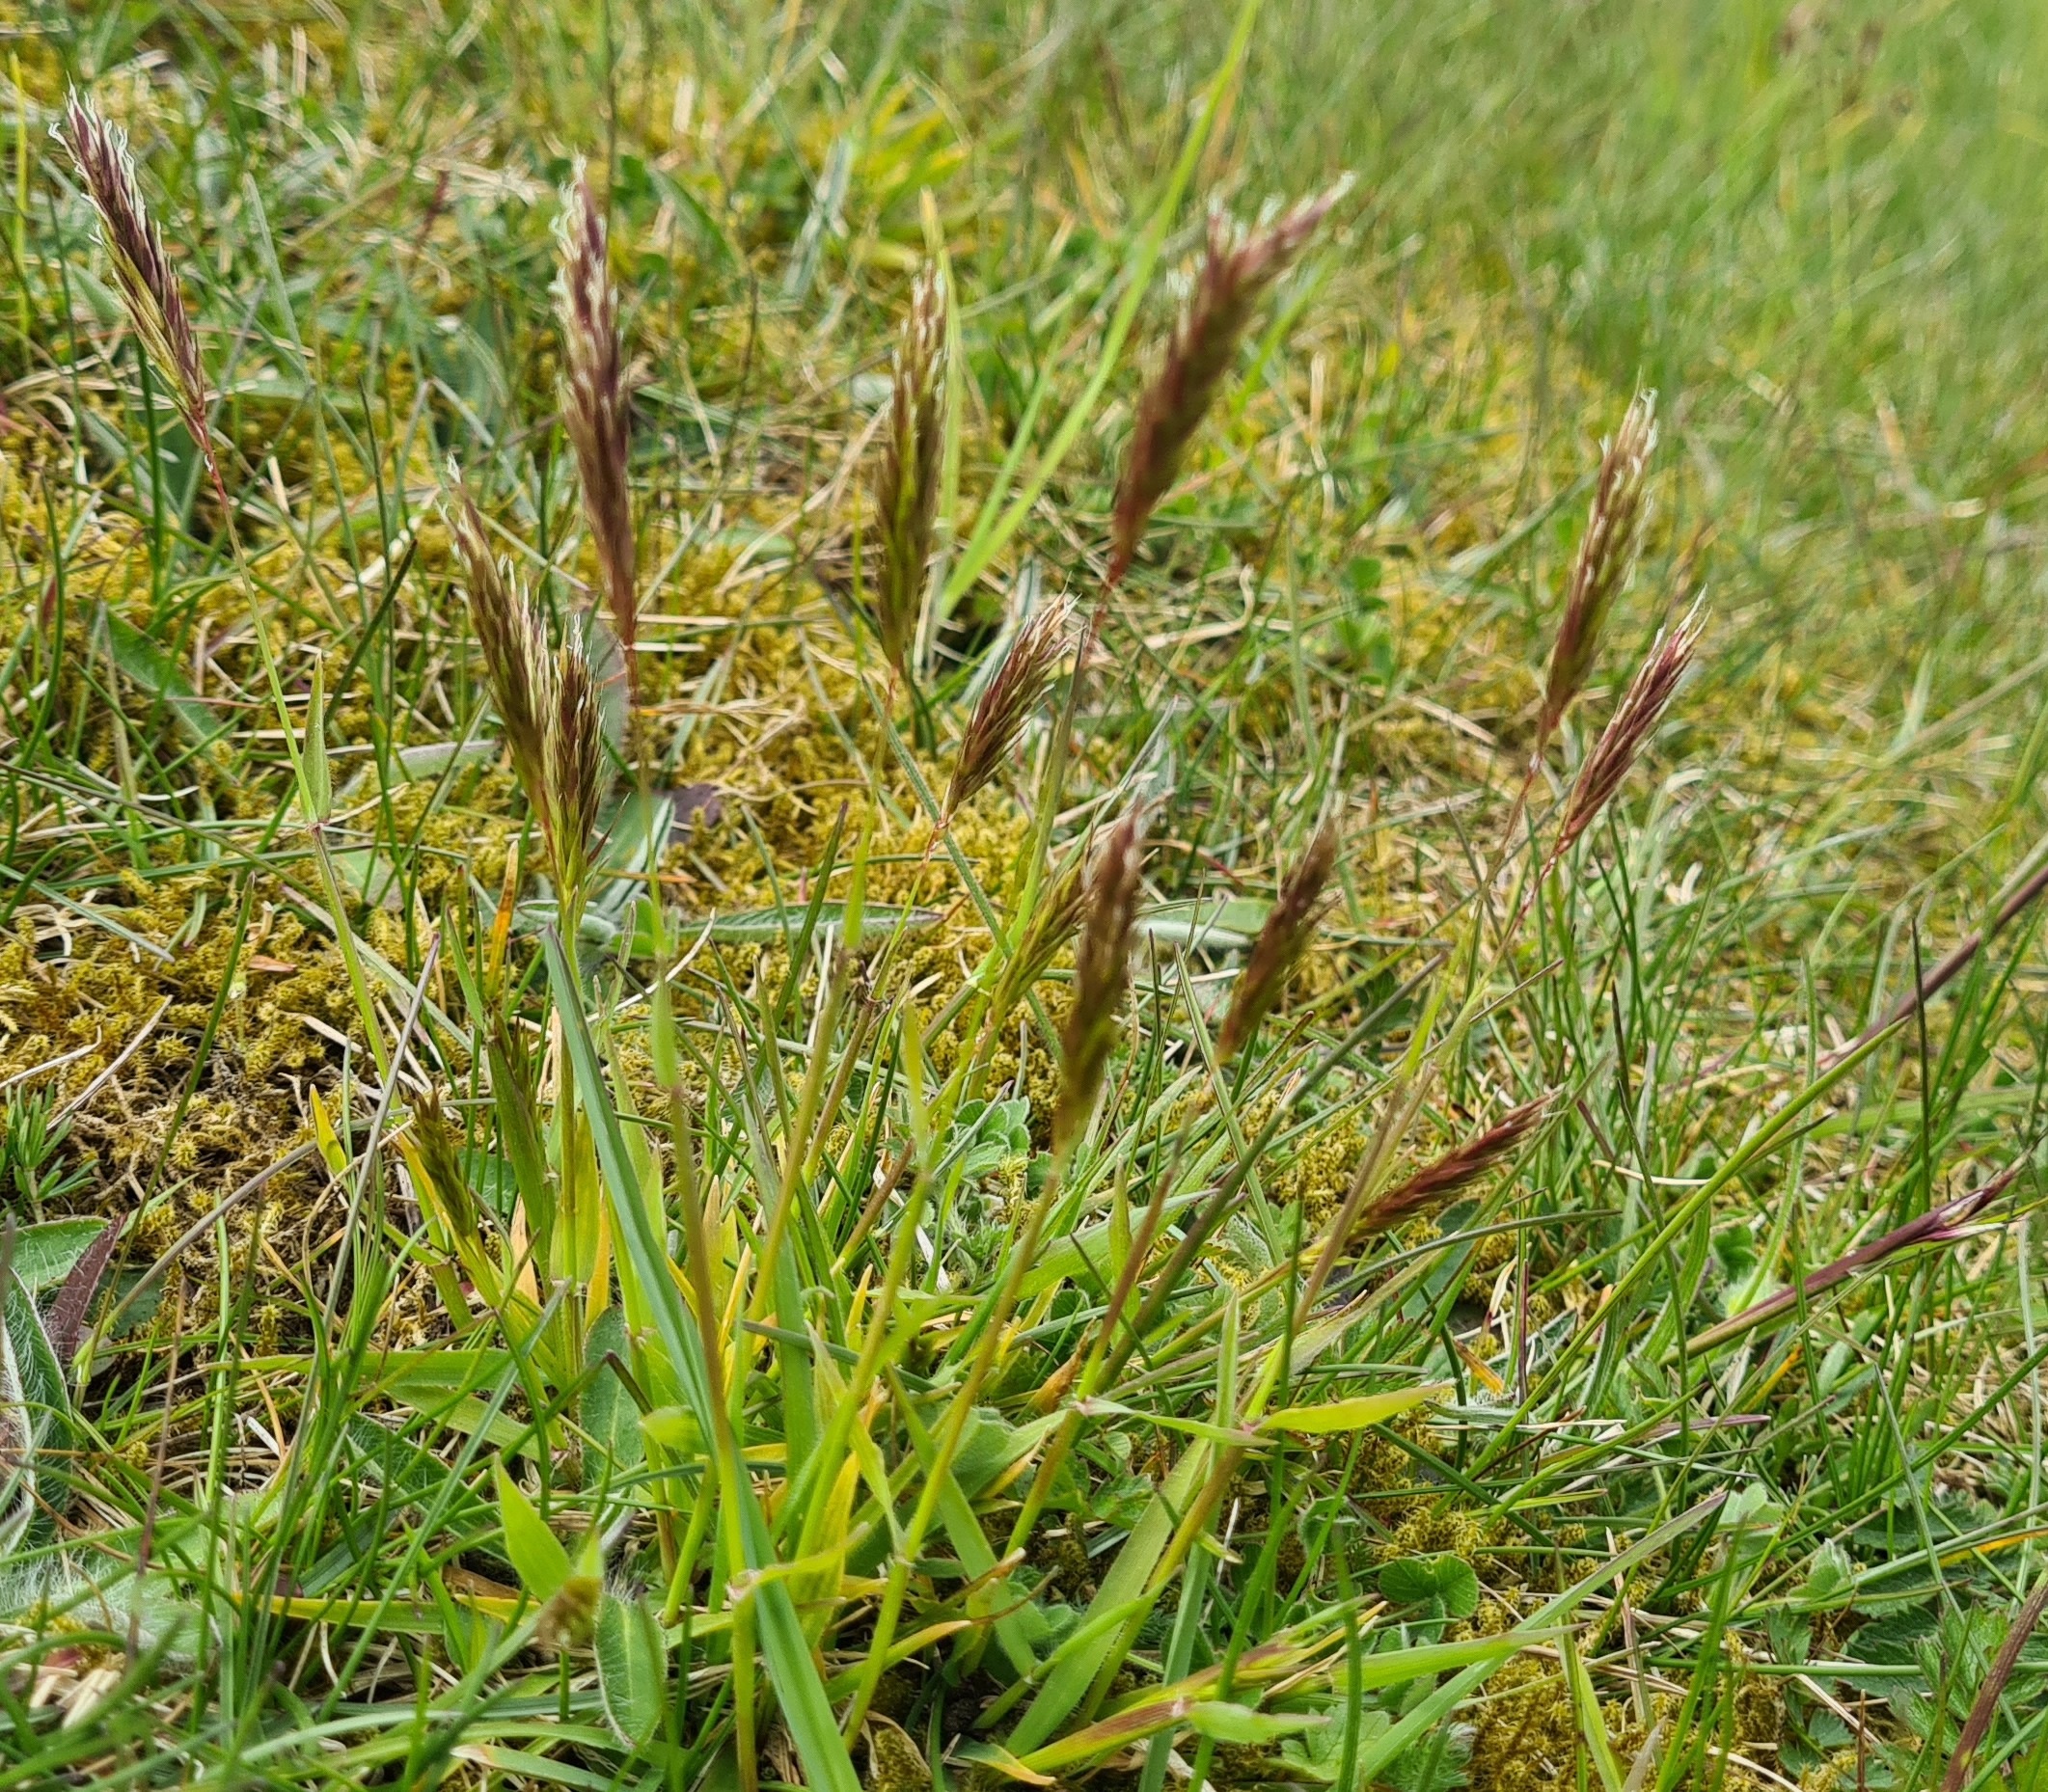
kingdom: Plantae
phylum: Tracheophyta
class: Liliopsida
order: Poales
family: Poaceae
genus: Anthoxanthum
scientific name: Anthoxanthum odoratum
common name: Vellugtende gulaks
